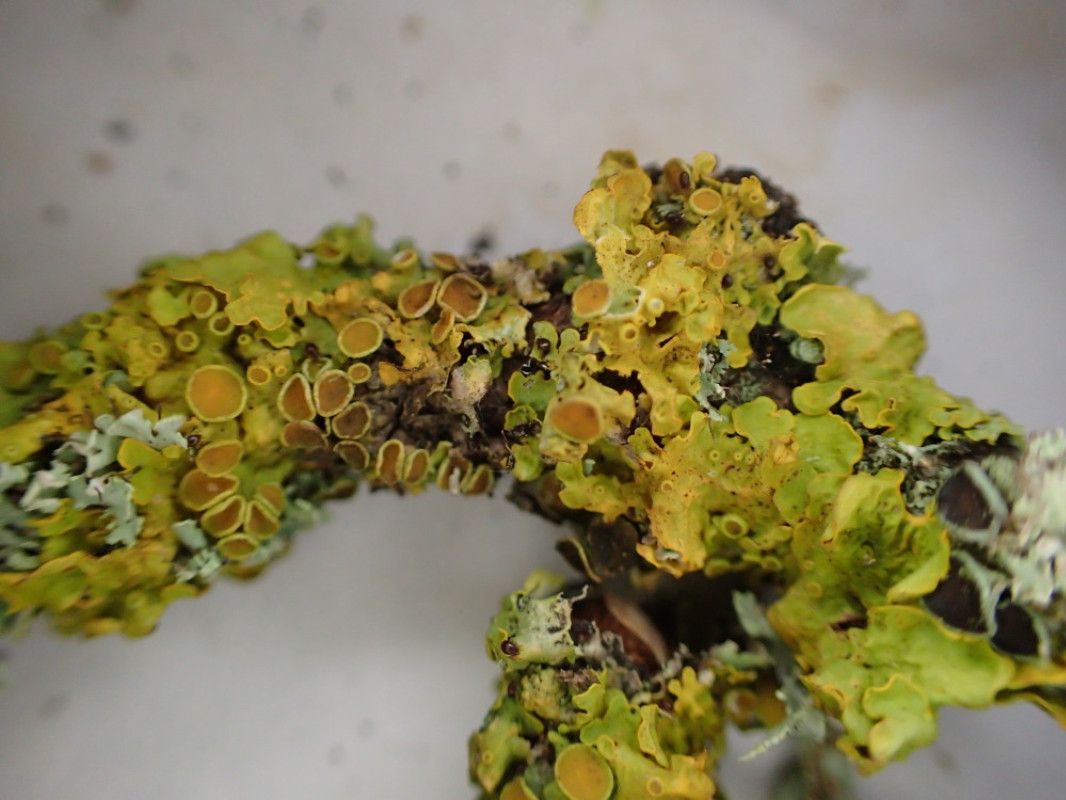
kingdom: Fungi
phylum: Ascomycota
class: Lecanoromycetes
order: Teloschistales
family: Teloschistaceae
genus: Xanthoria
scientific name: Xanthoria parietina
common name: almindelig væggelav
